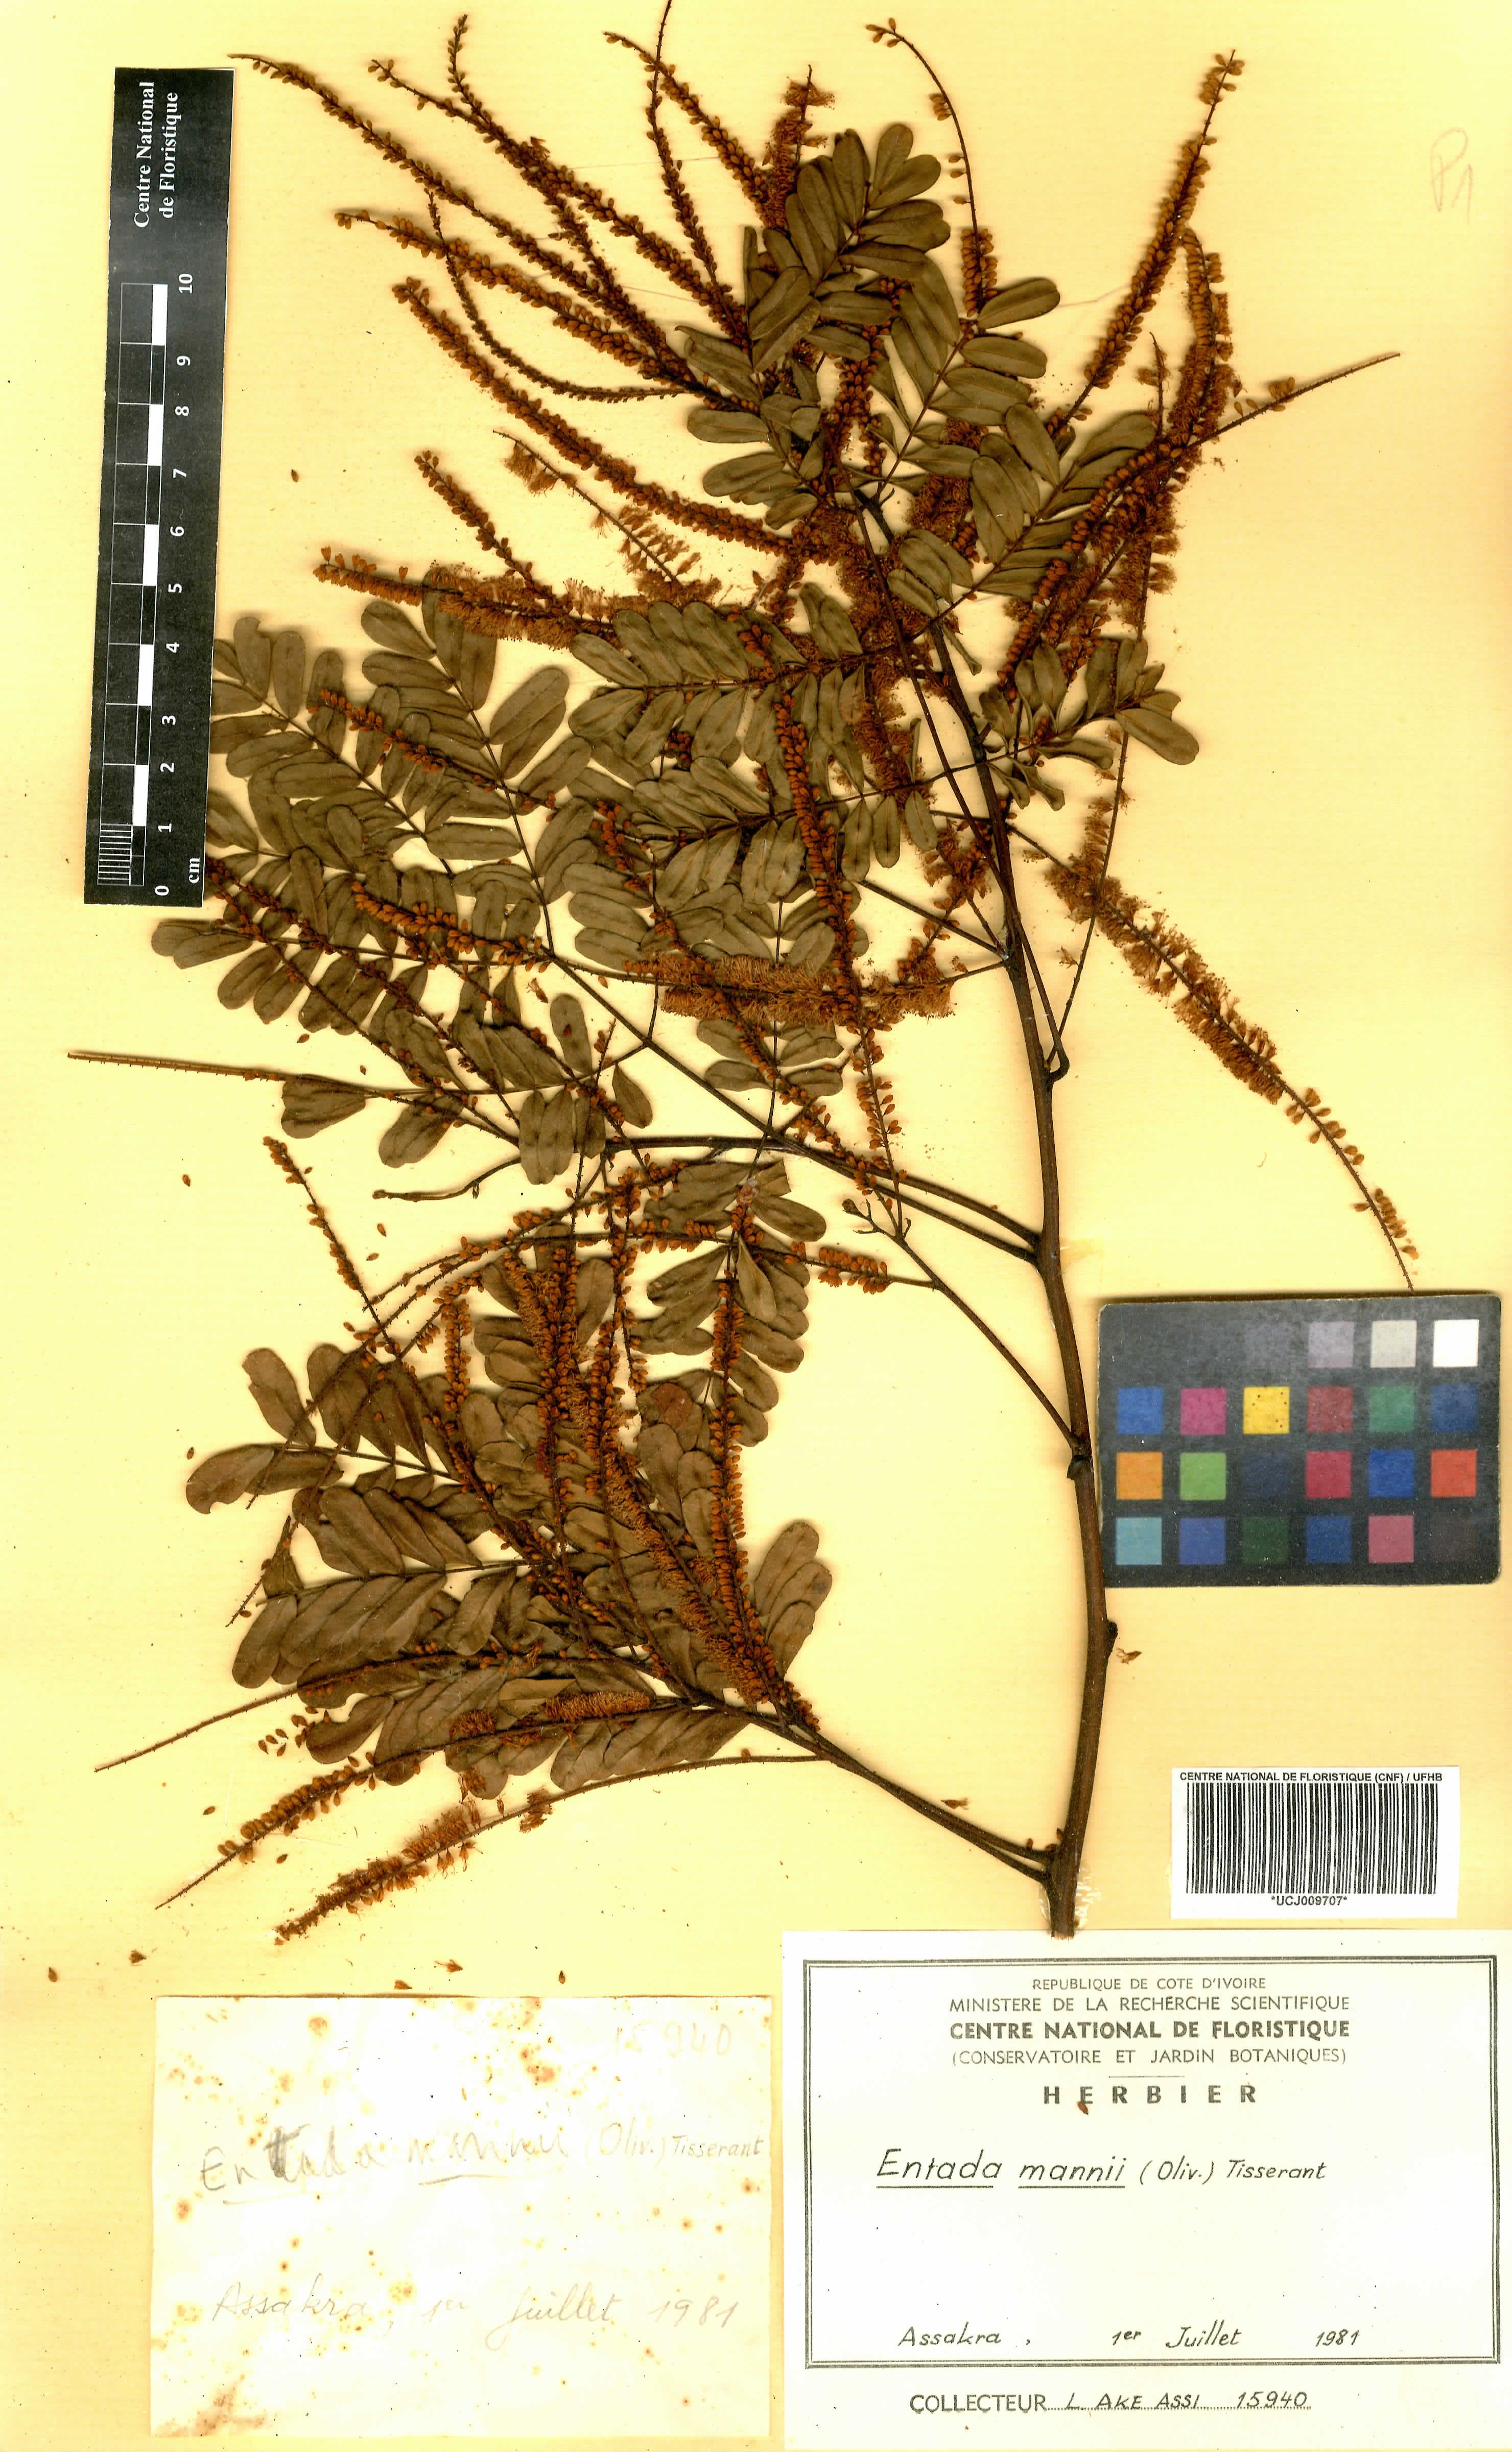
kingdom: Plantae
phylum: Tracheophyta
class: Magnoliopsida
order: Fabales
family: Fabaceae
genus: Entada
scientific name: Entada mannii
